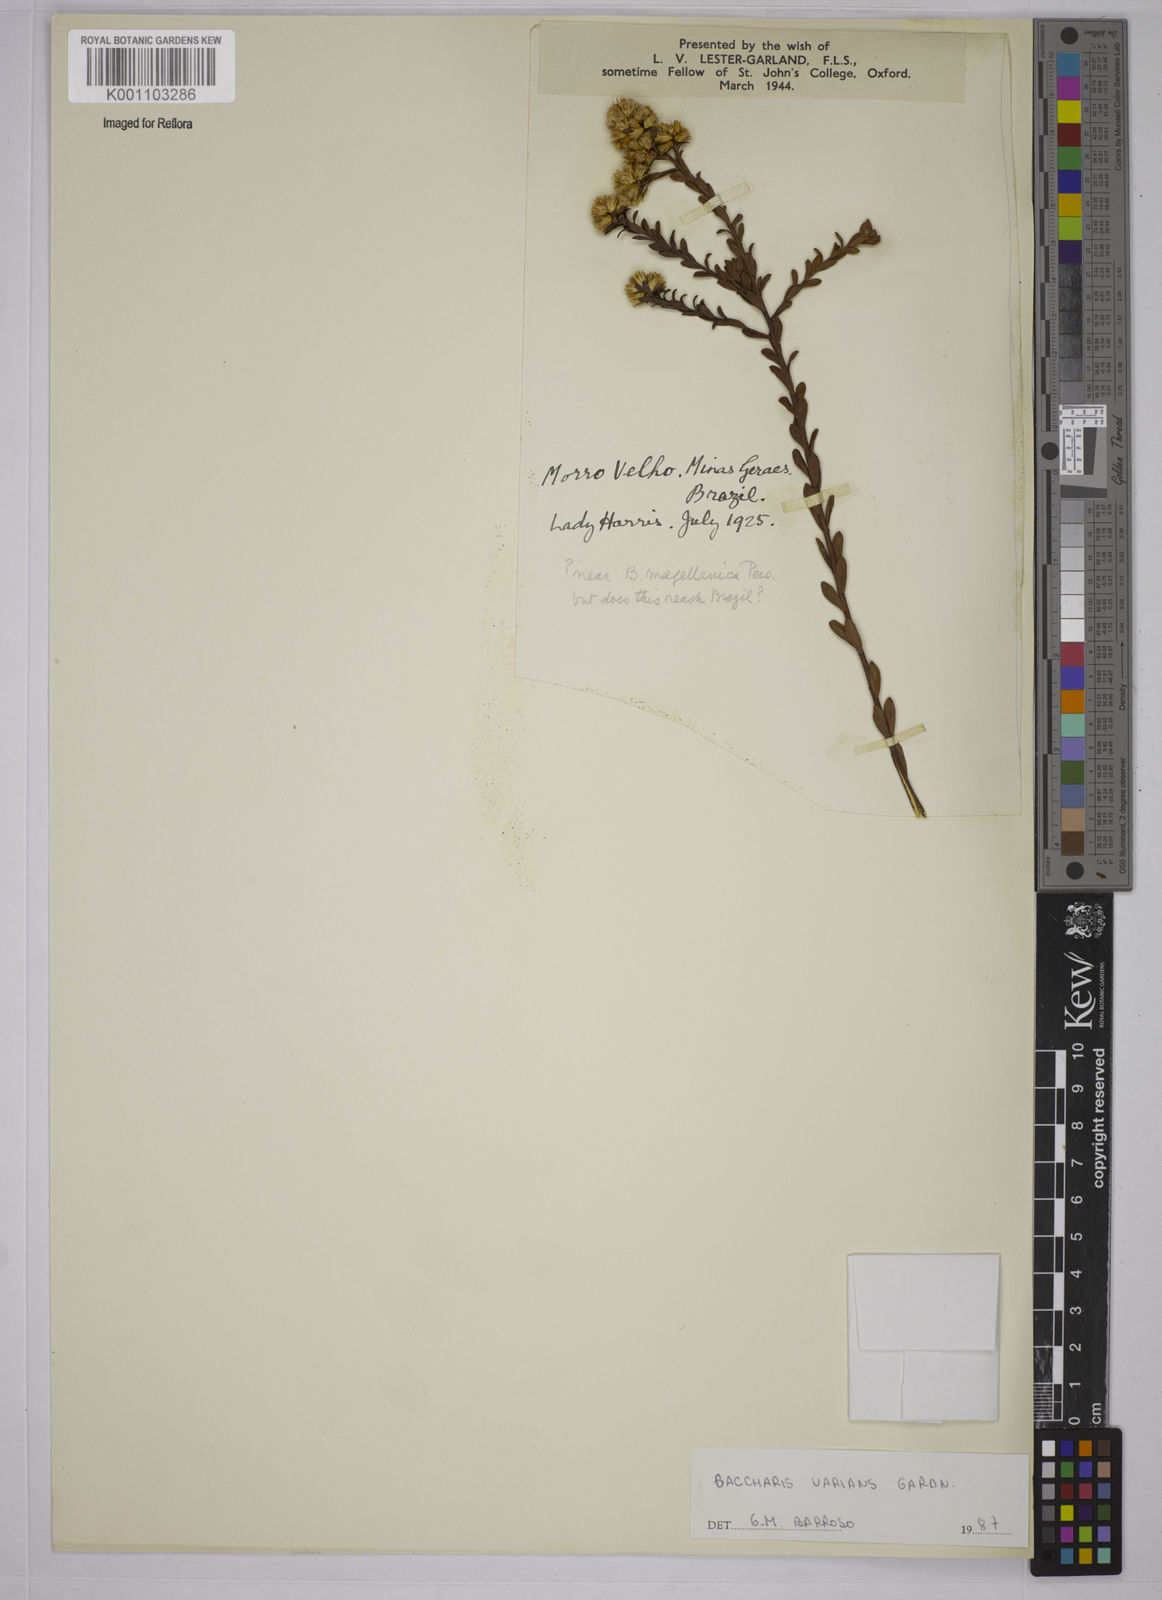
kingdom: Plantae
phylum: Tracheophyta
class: Magnoliopsida
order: Asterales
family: Asteraceae
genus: Baccharis
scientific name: Baccharis varians
